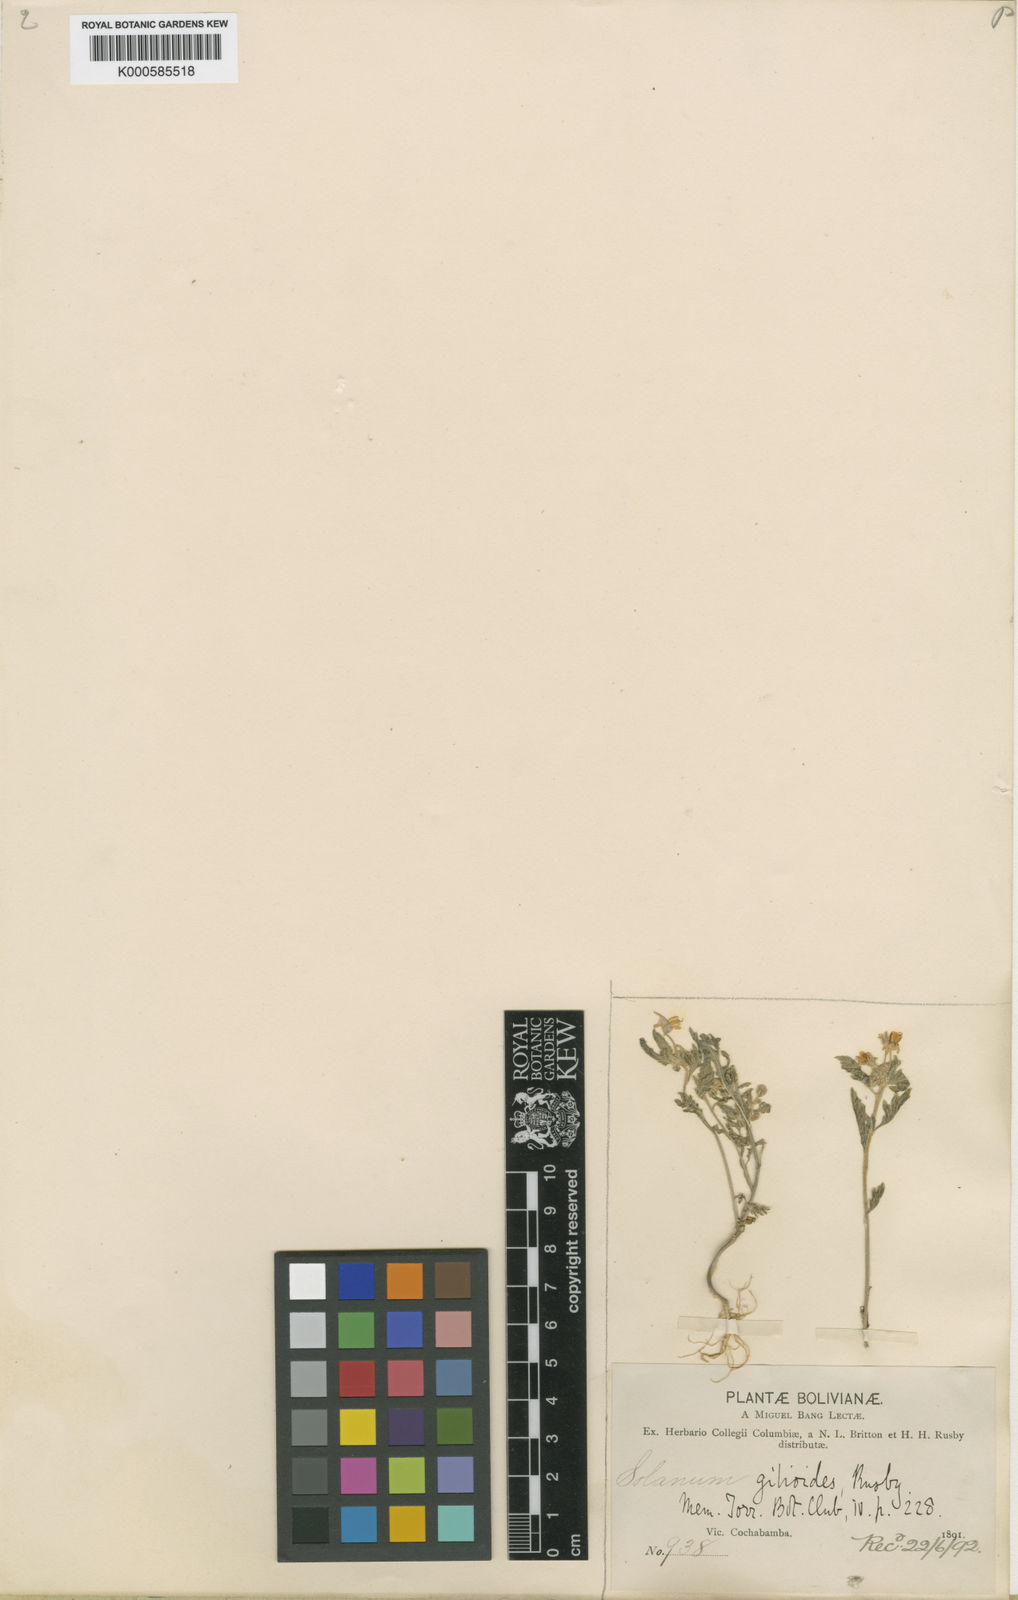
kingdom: Plantae
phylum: Tracheophyta
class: Magnoliopsida
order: Solanales
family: Solanaceae
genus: Solanum
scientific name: Solanum gilioides
